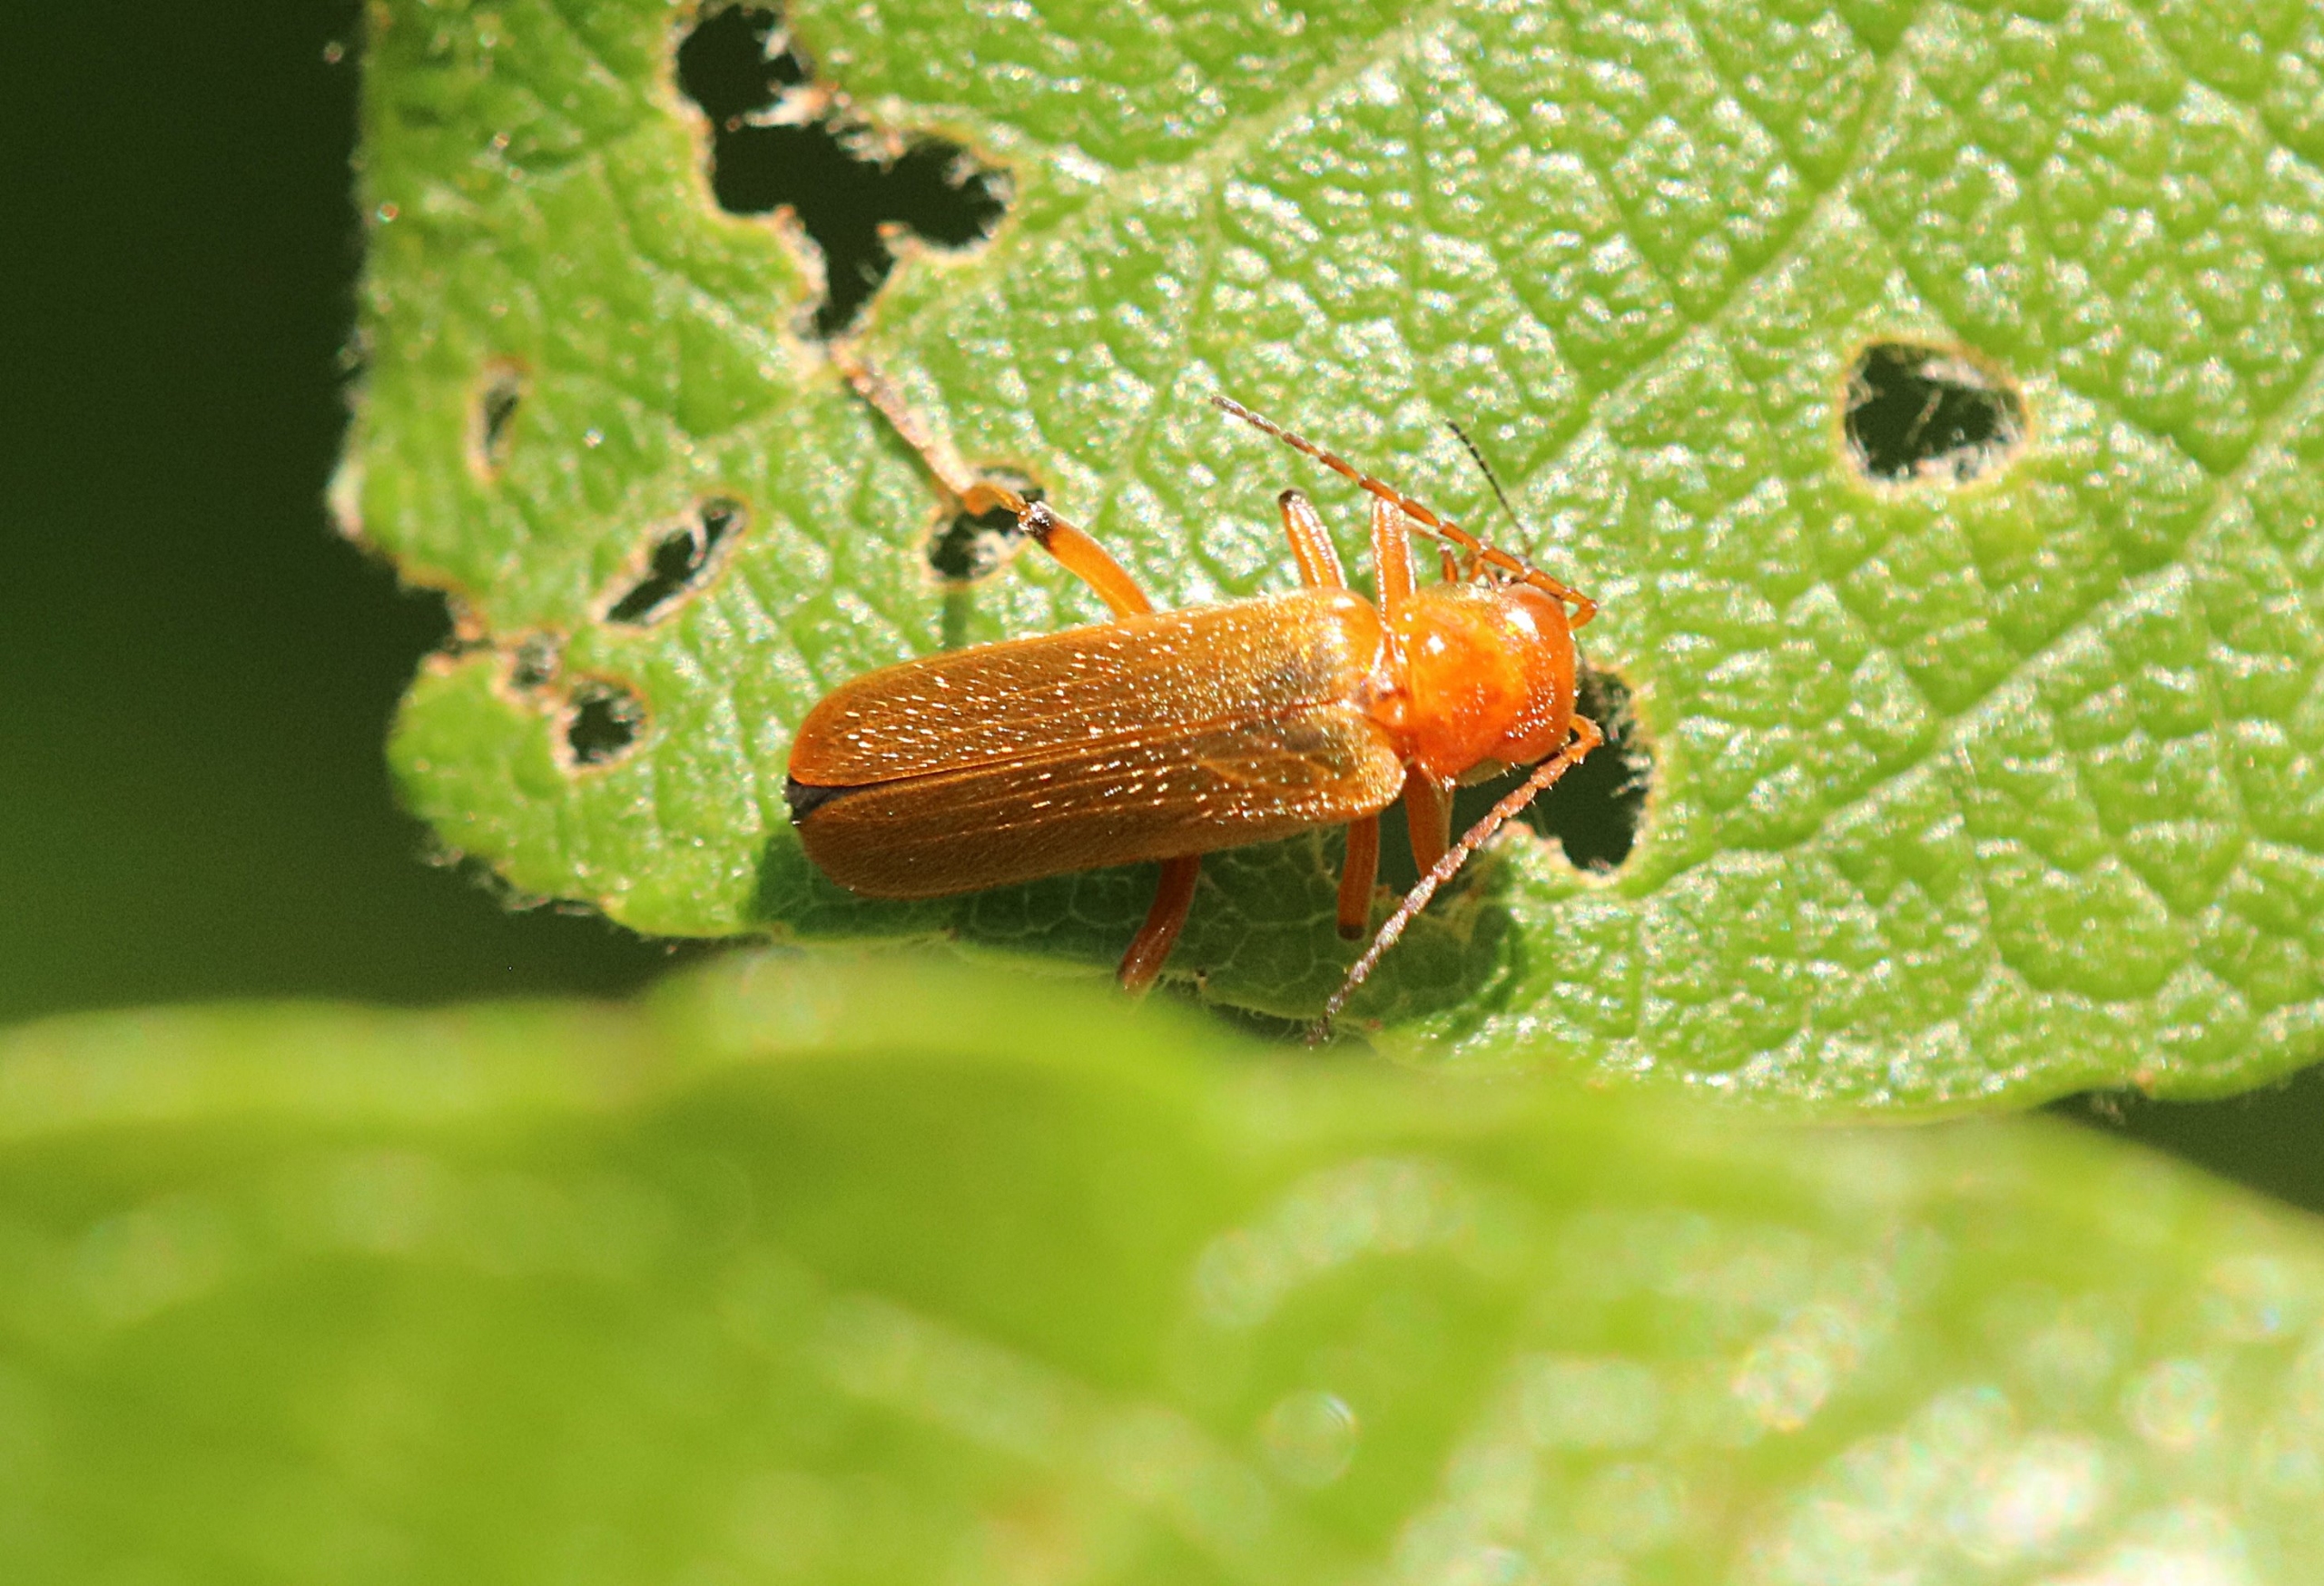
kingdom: Animalia
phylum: Arthropoda
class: Insecta
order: Coleoptera
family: Cantharidae
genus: Cantharis
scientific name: Cantharis
